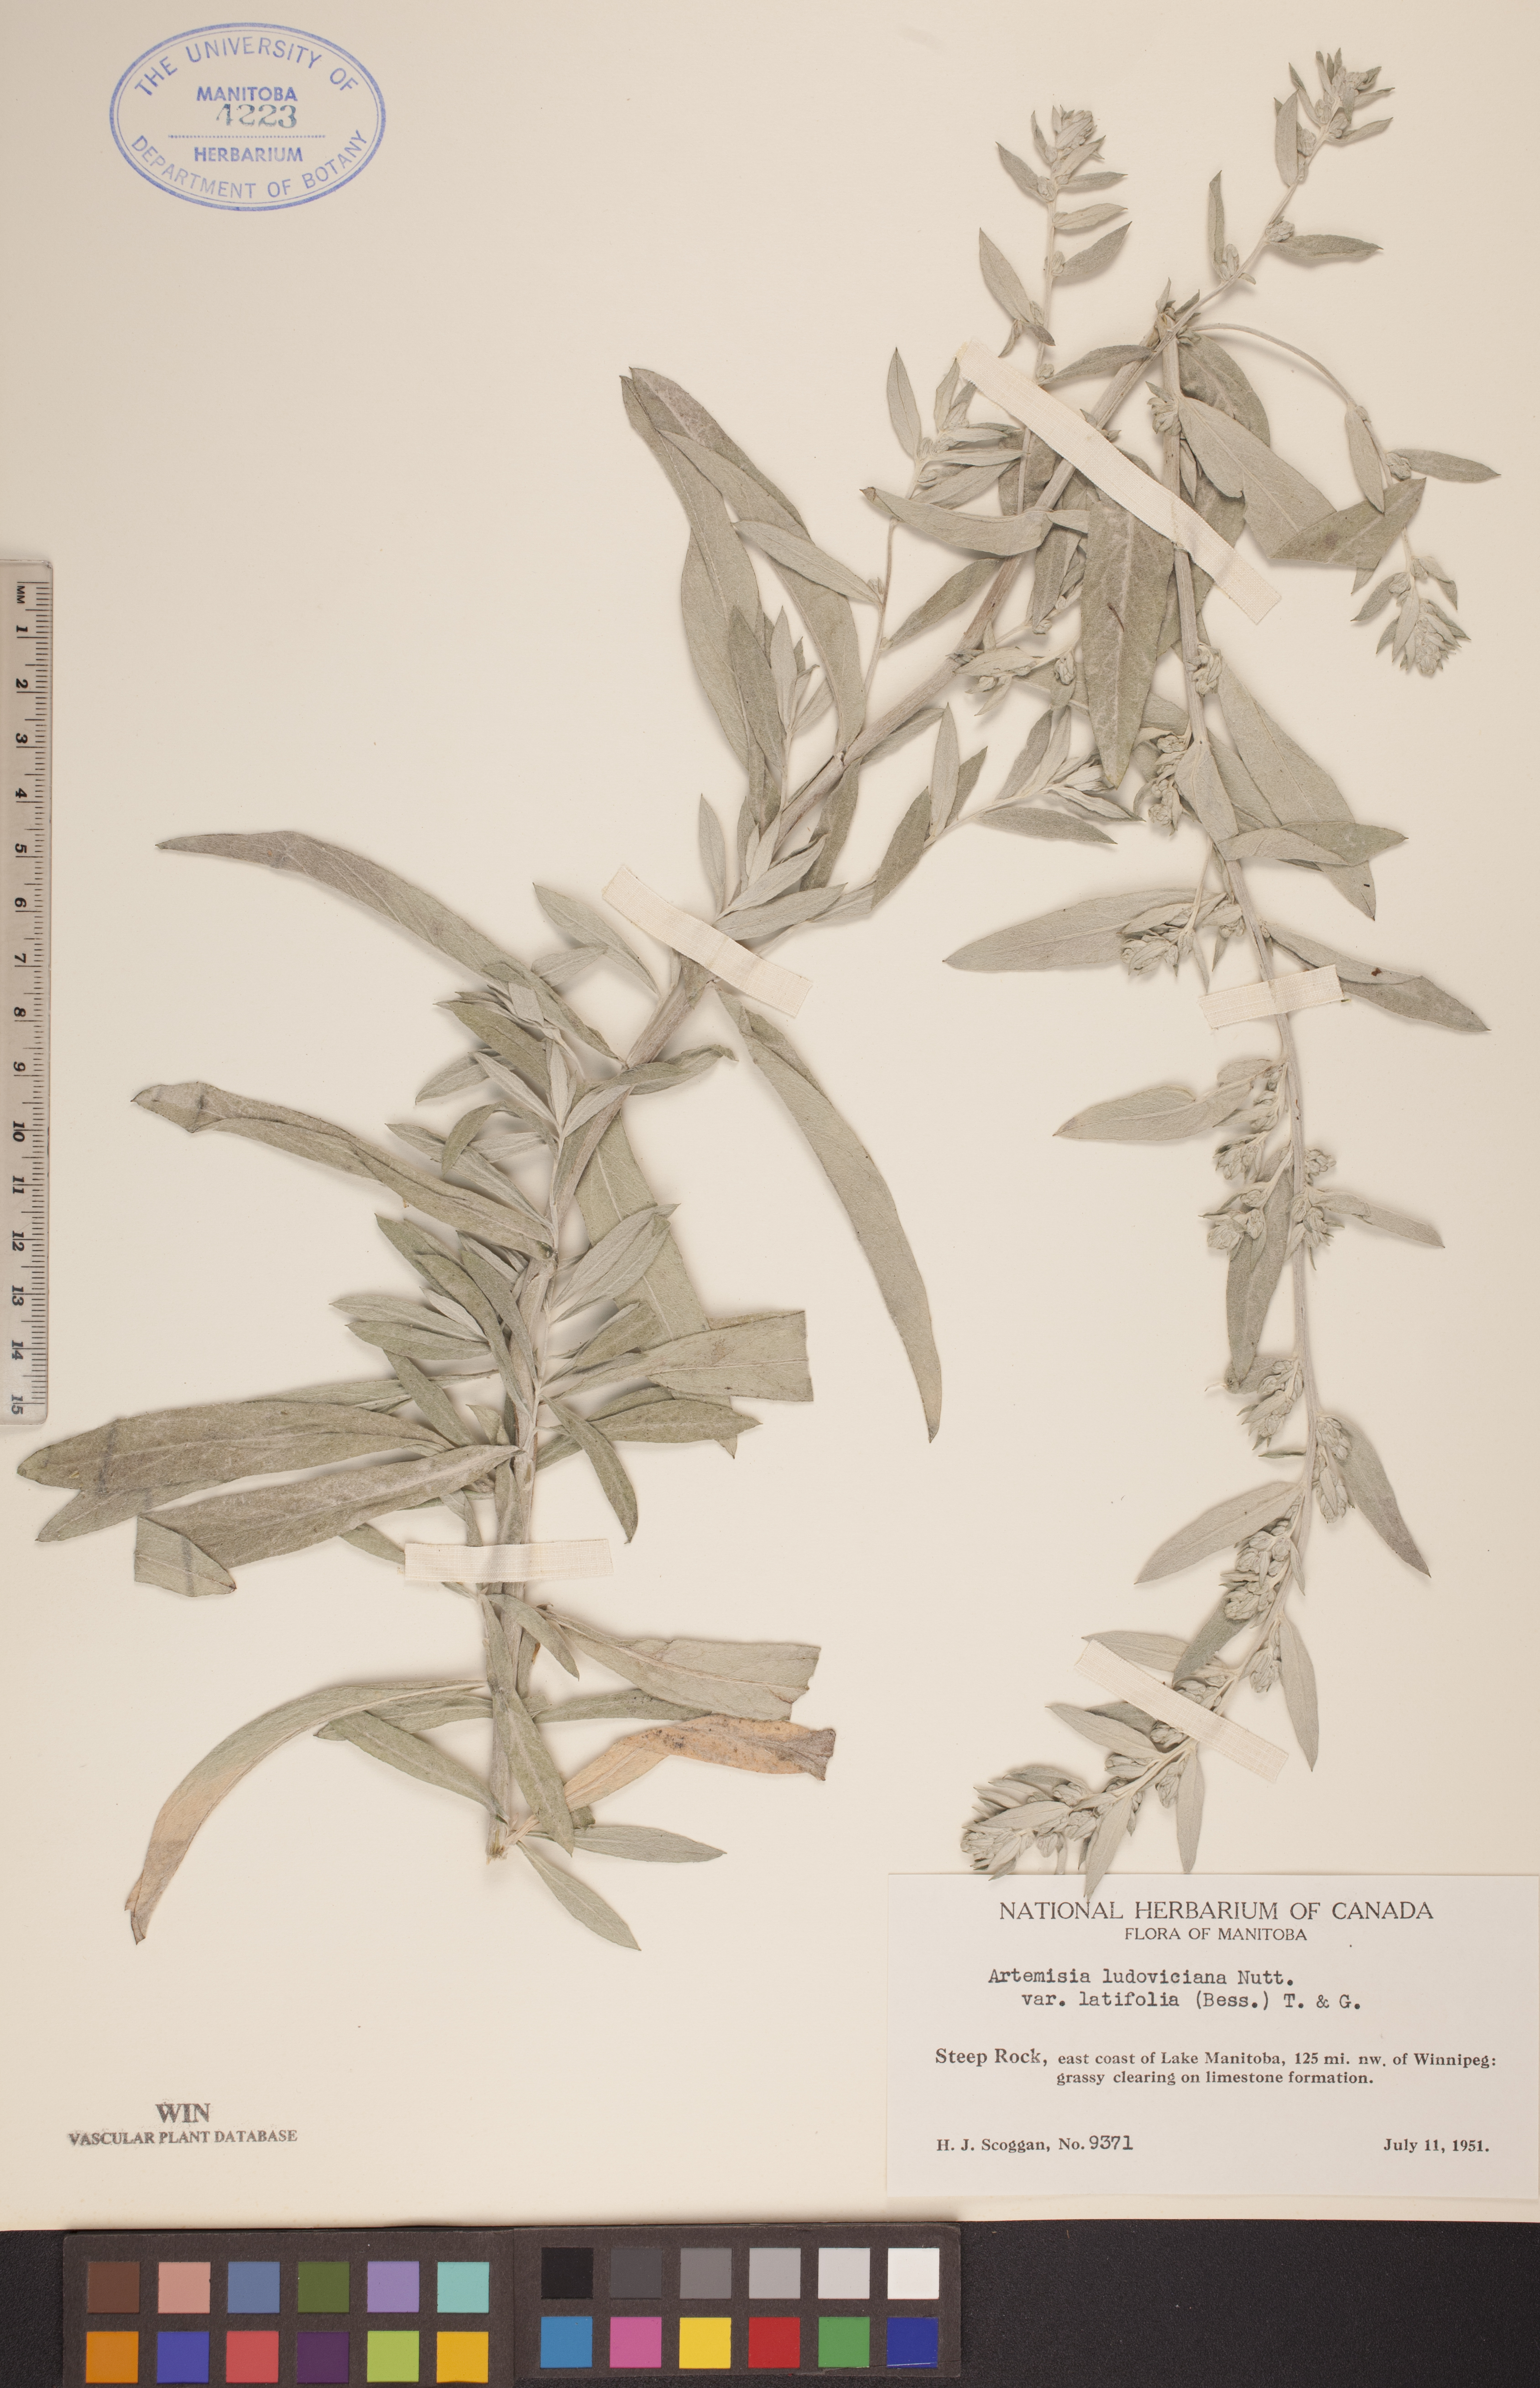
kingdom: Plantae
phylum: Tracheophyta
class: Magnoliopsida
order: Asterales
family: Asteraceae
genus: Artemisia
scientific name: Artemisia ludoviciana
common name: Western mugwort
